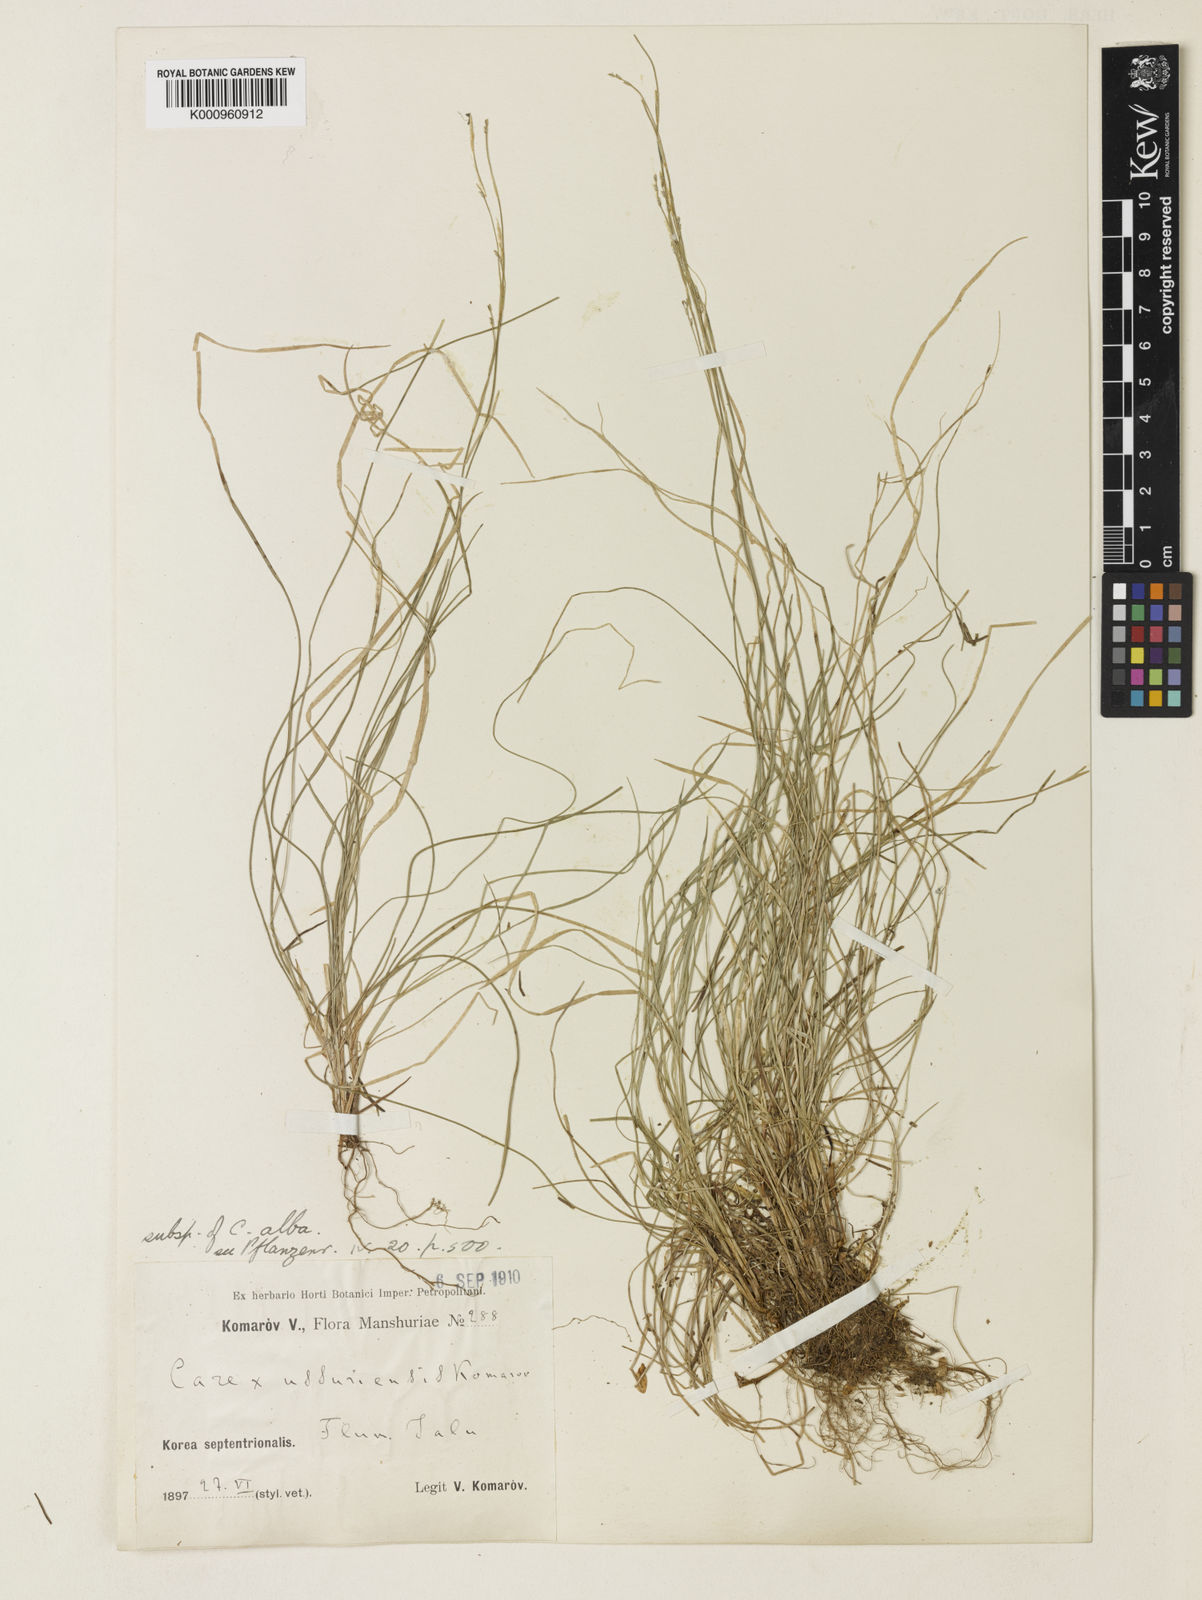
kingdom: Plantae
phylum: Tracheophyta
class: Liliopsida
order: Poales
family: Cyperaceae
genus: Carex
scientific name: Carex alba
